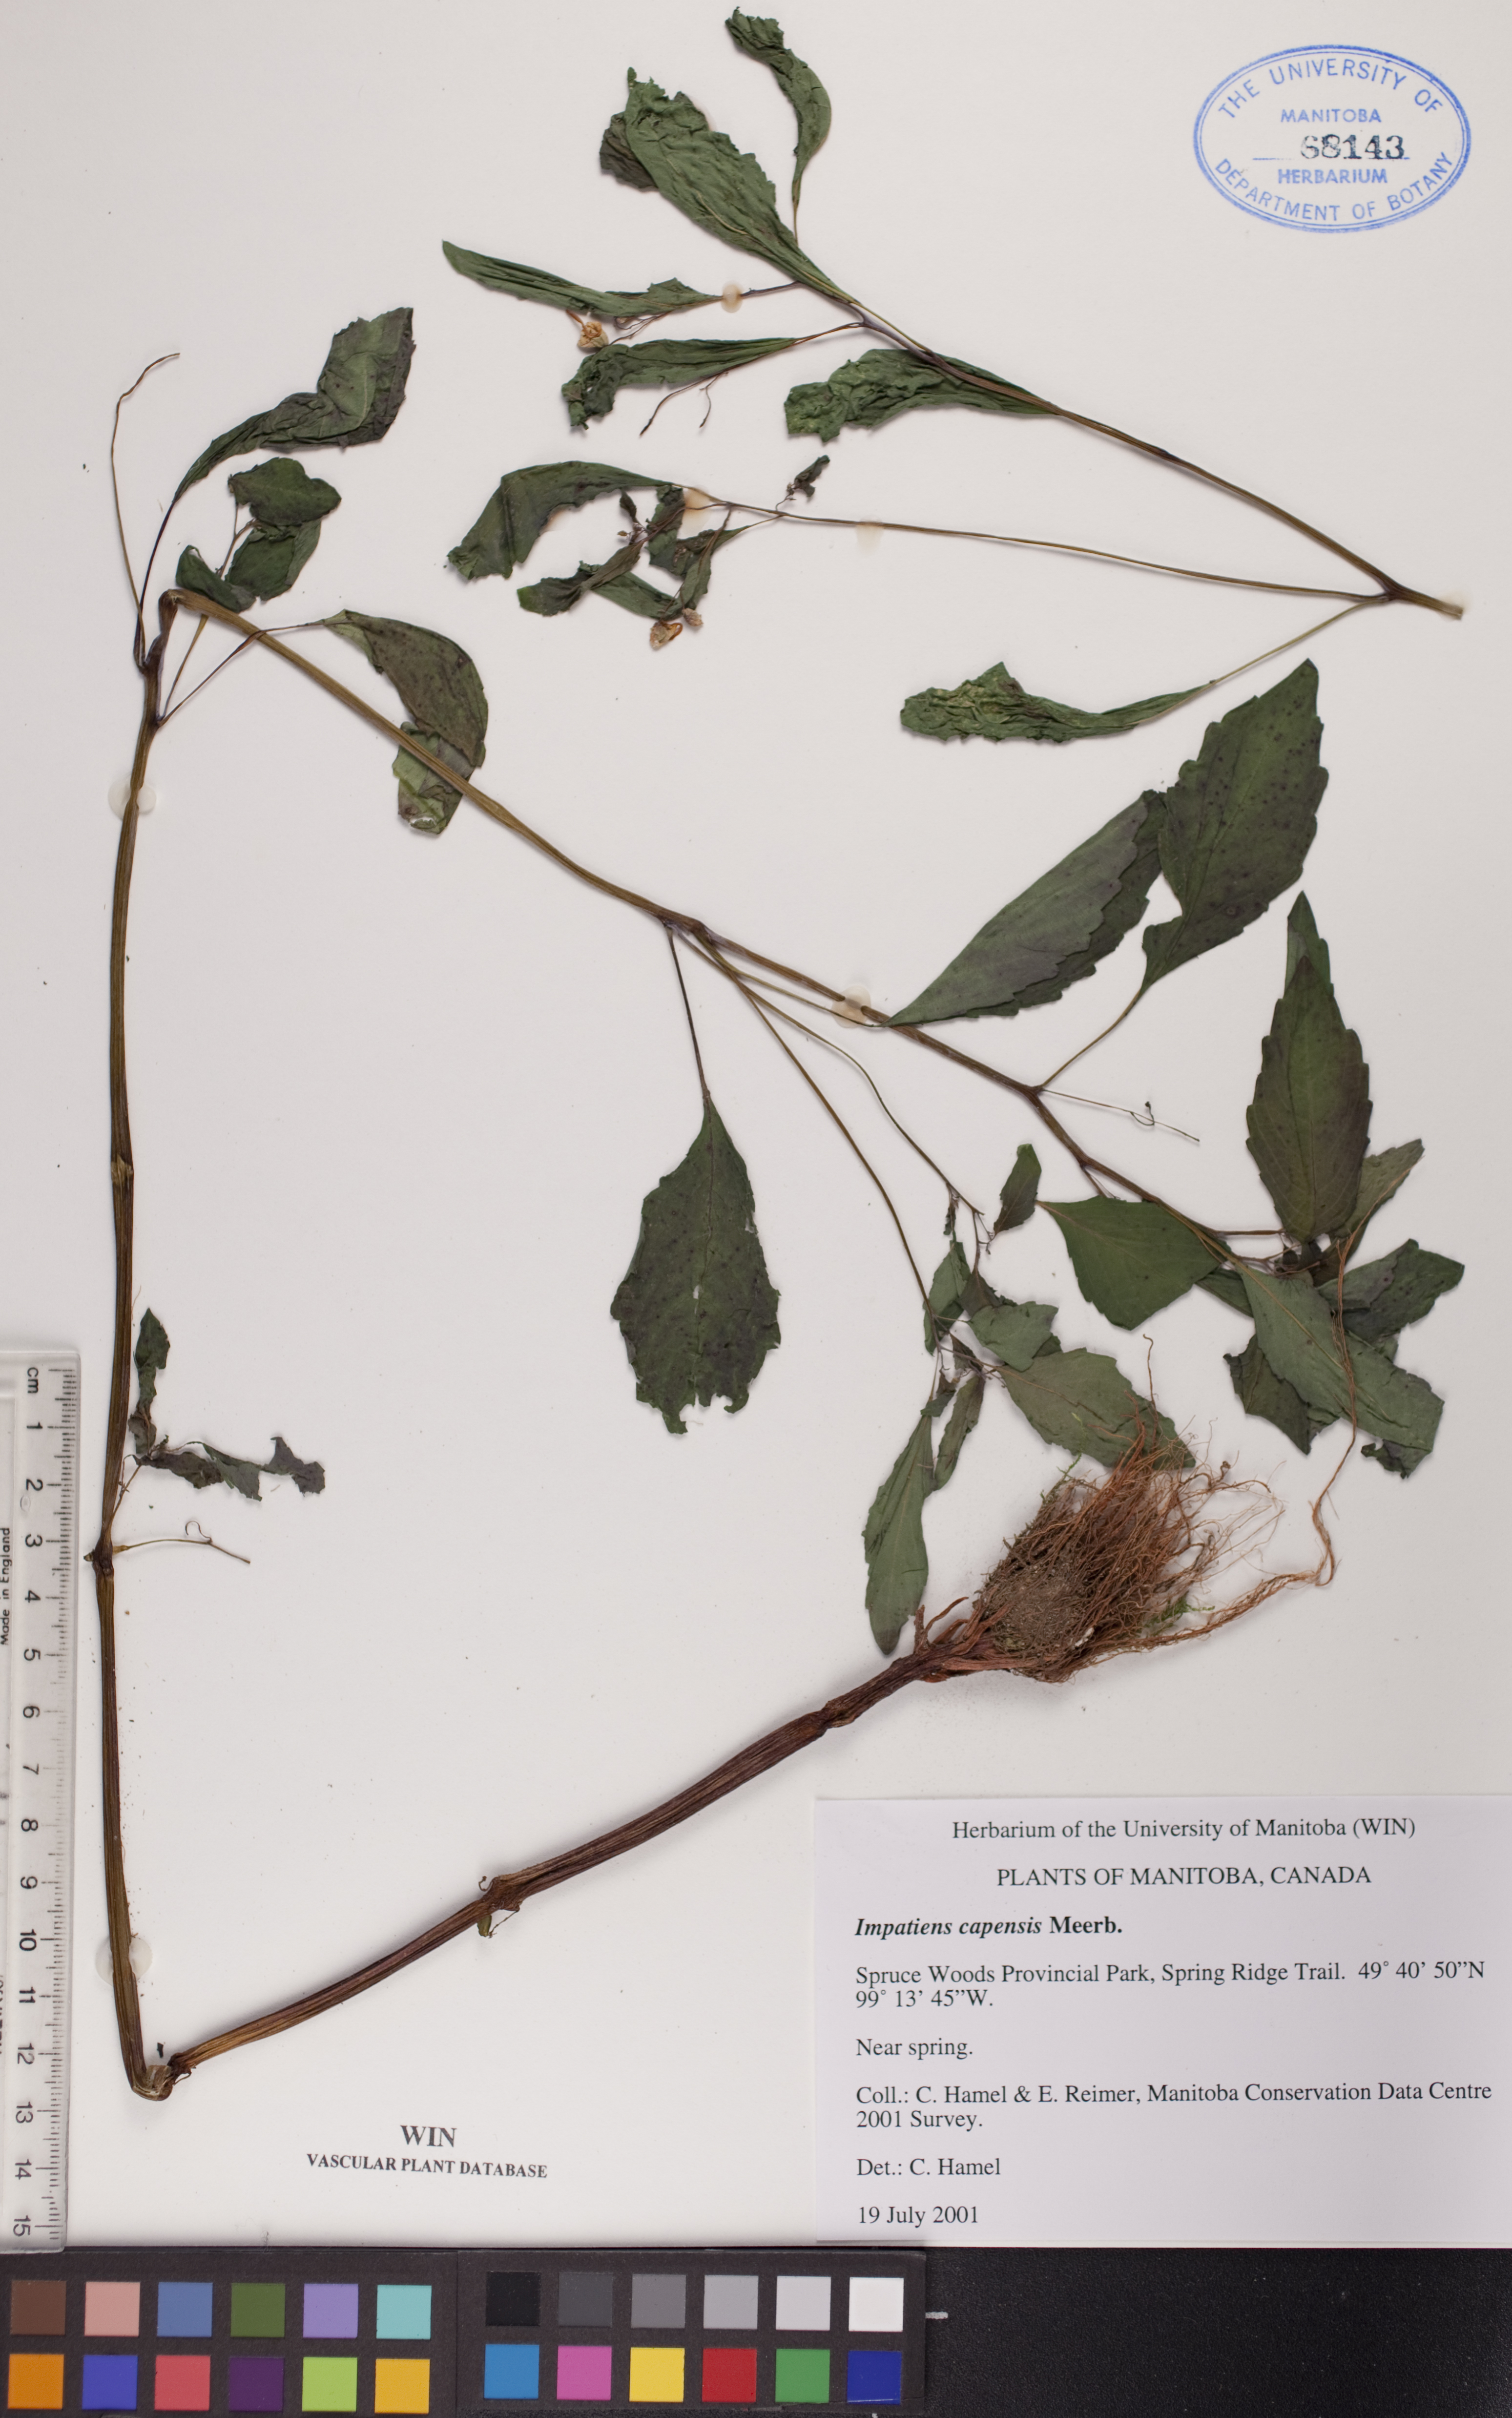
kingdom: Plantae
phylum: Tracheophyta
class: Magnoliopsida
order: Ericales
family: Balsaminaceae
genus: Impatiens
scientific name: Impatiens capensis
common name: Orange balsam
